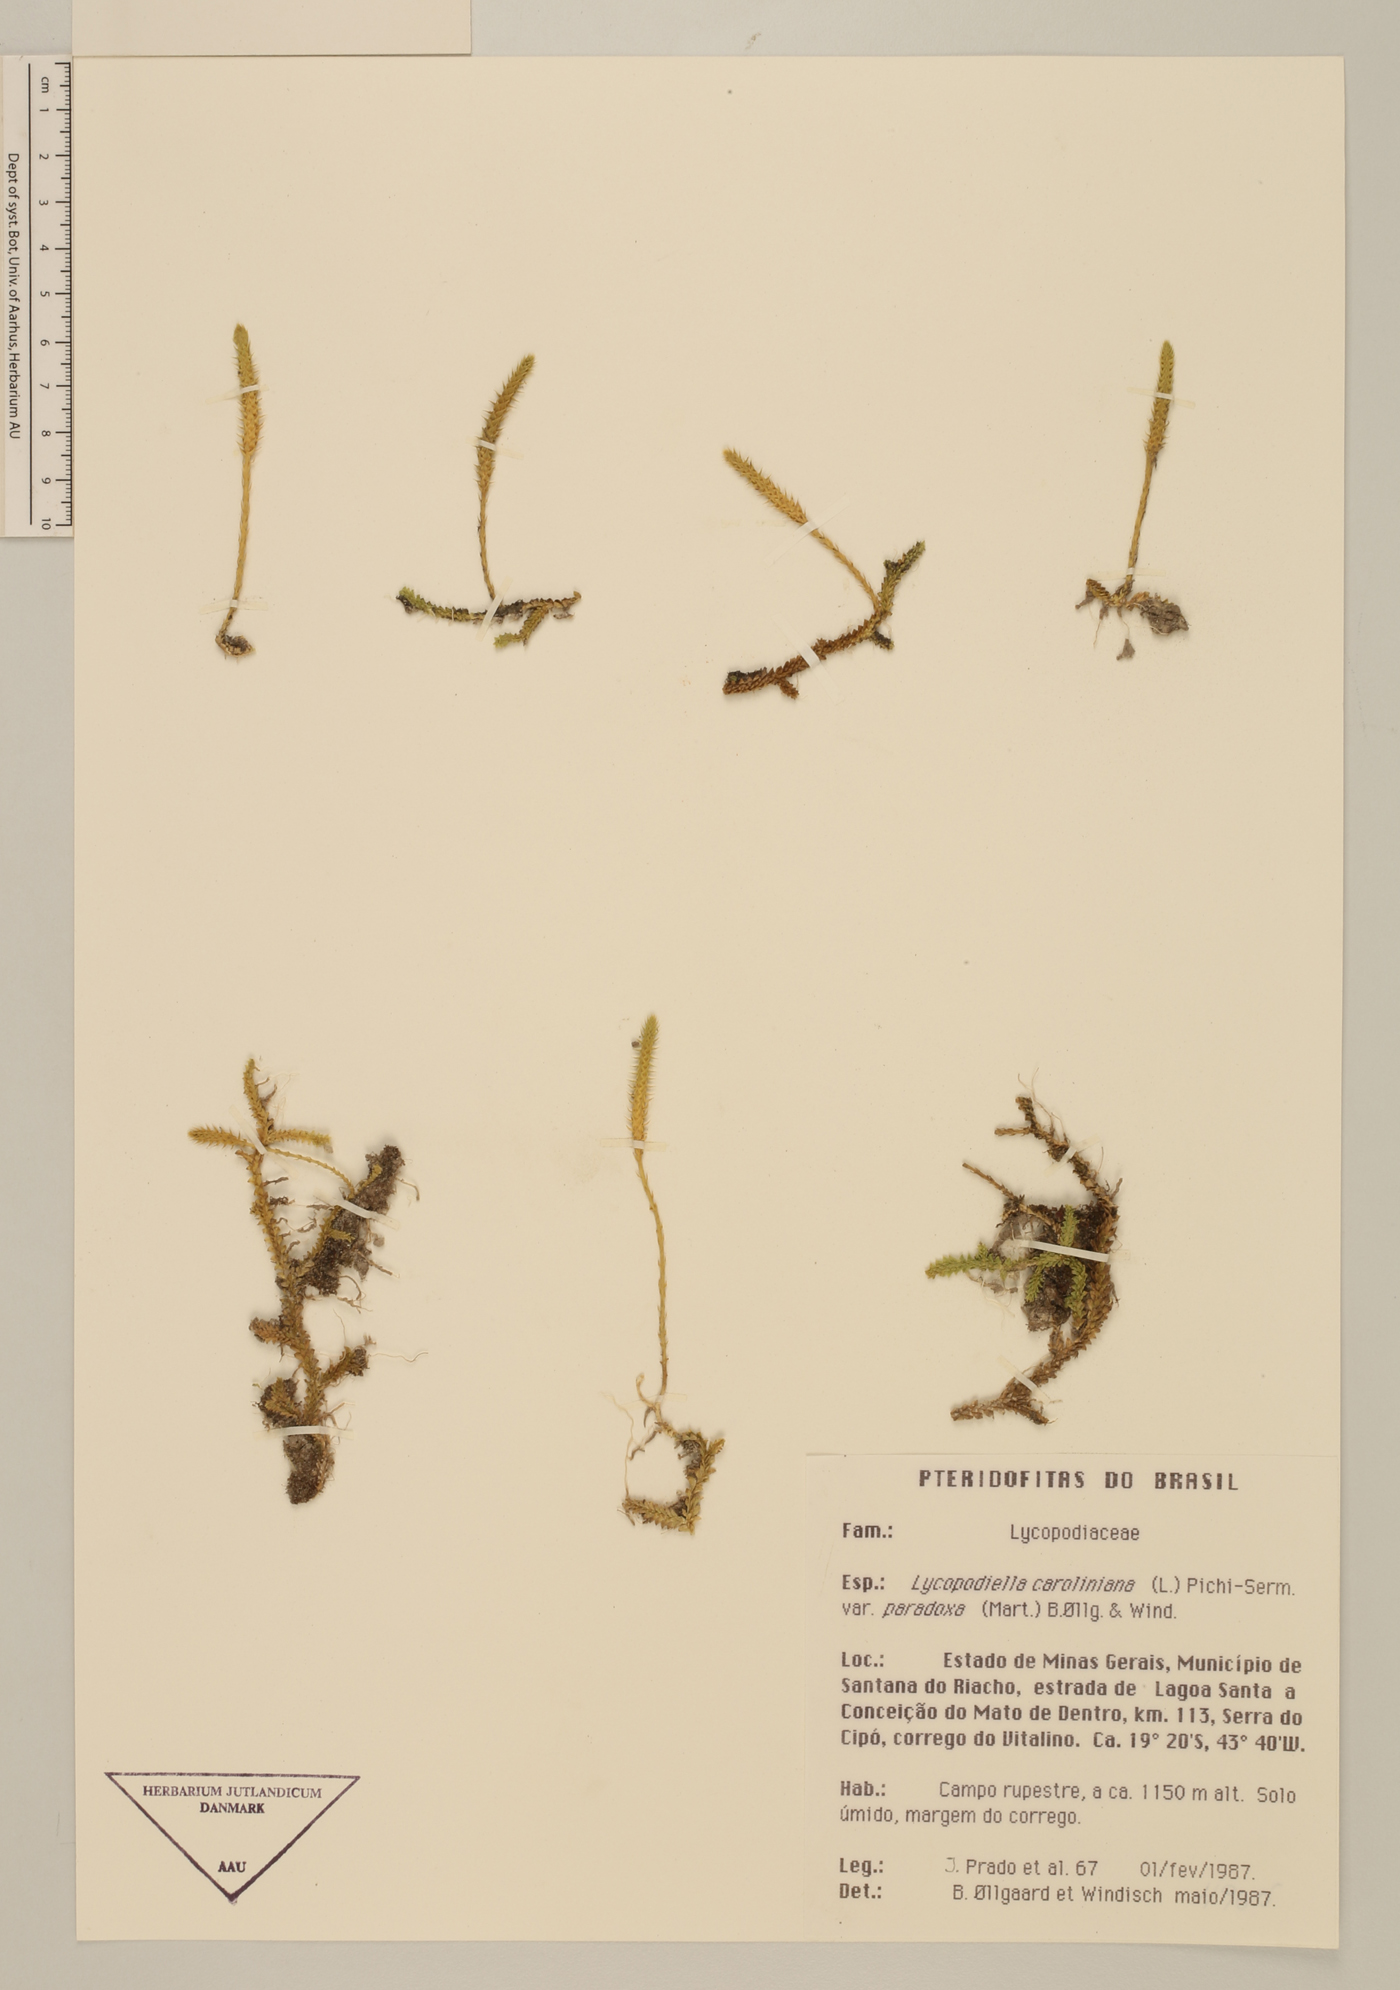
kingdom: Plantae
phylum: Tracheophyta
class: Lycopodiopsida
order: Lycopodiales
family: Lycopodiaceae
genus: Pseudolycopodiella
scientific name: Pseudolycopodiella paradoxa
